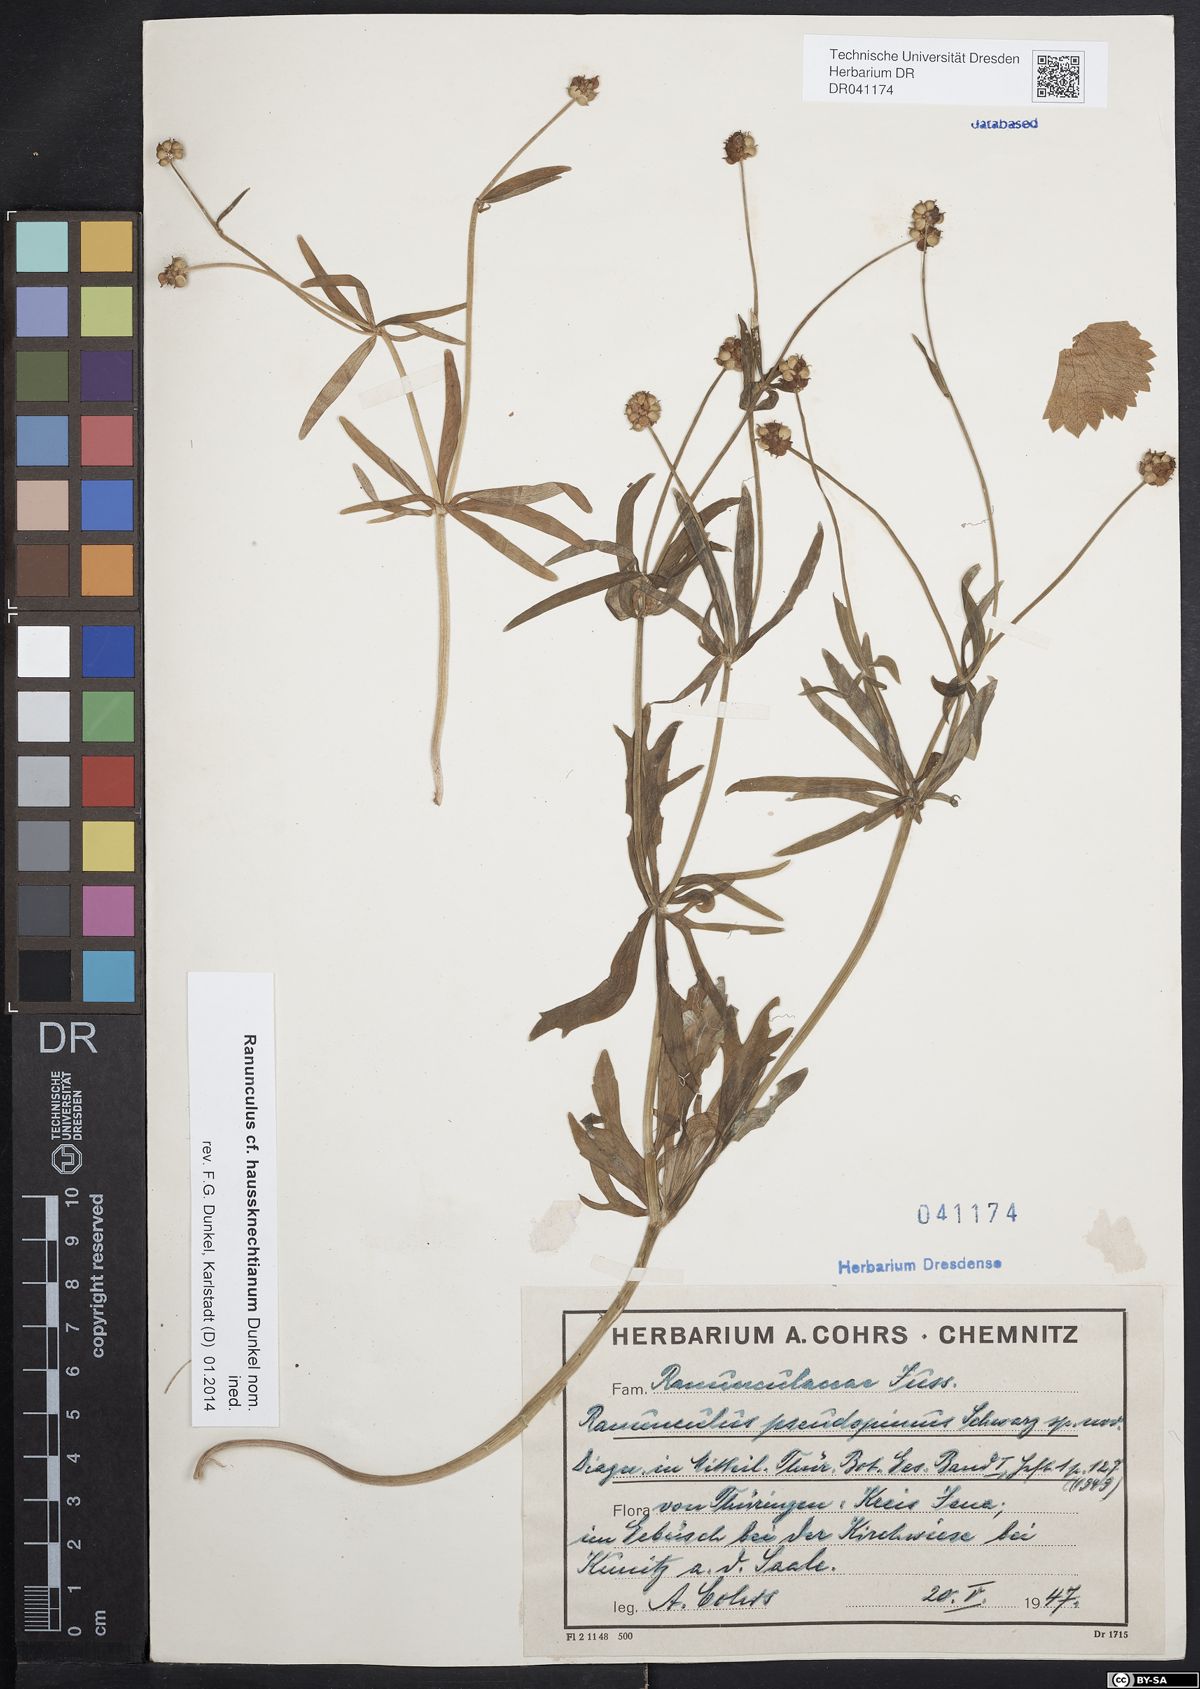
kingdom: Plantae
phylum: Tracheophyta
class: Magnoliopsida
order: Ranunculales
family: Ranunculaceae
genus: Ranunculus
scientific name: Ranunculus auricomus
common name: Goldilocks buttercup
